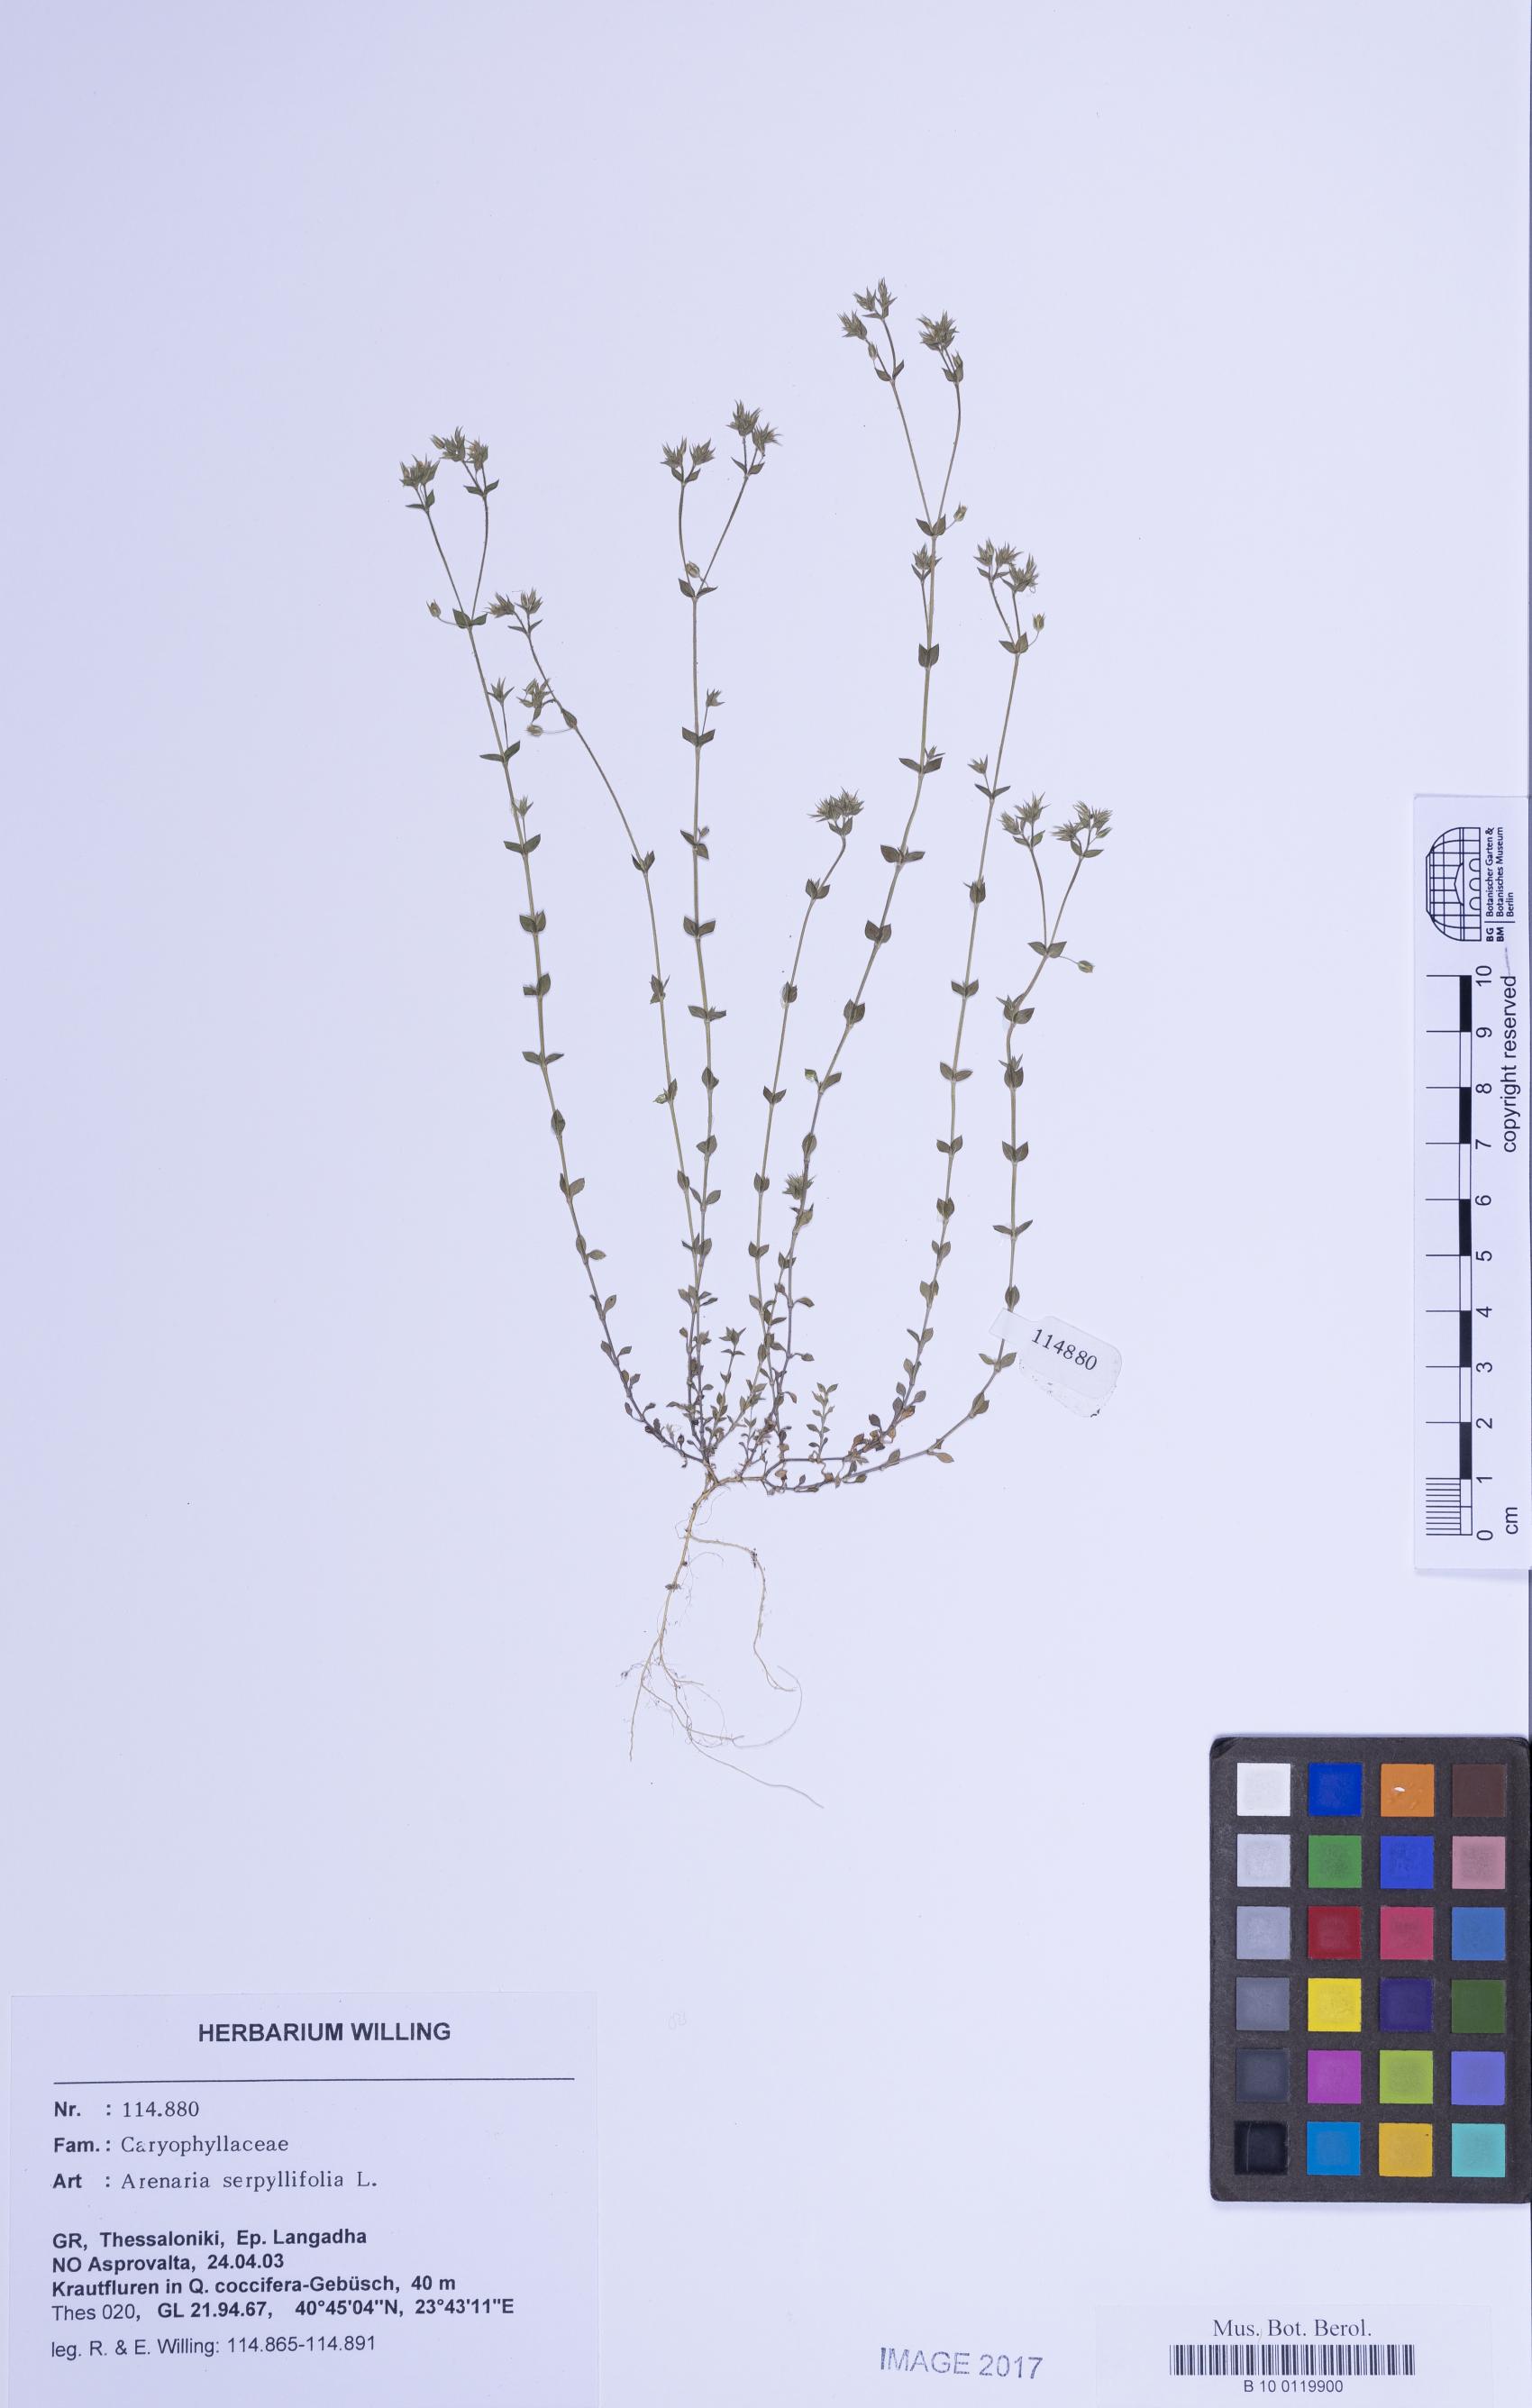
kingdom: Plantae
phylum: Tracheophyta
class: Magnoliopsida
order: Caryophyllales
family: Caryophyllaceae
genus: Arenaria
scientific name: Arenaria serpyllifolia
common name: Thyme-leaved sandwort
